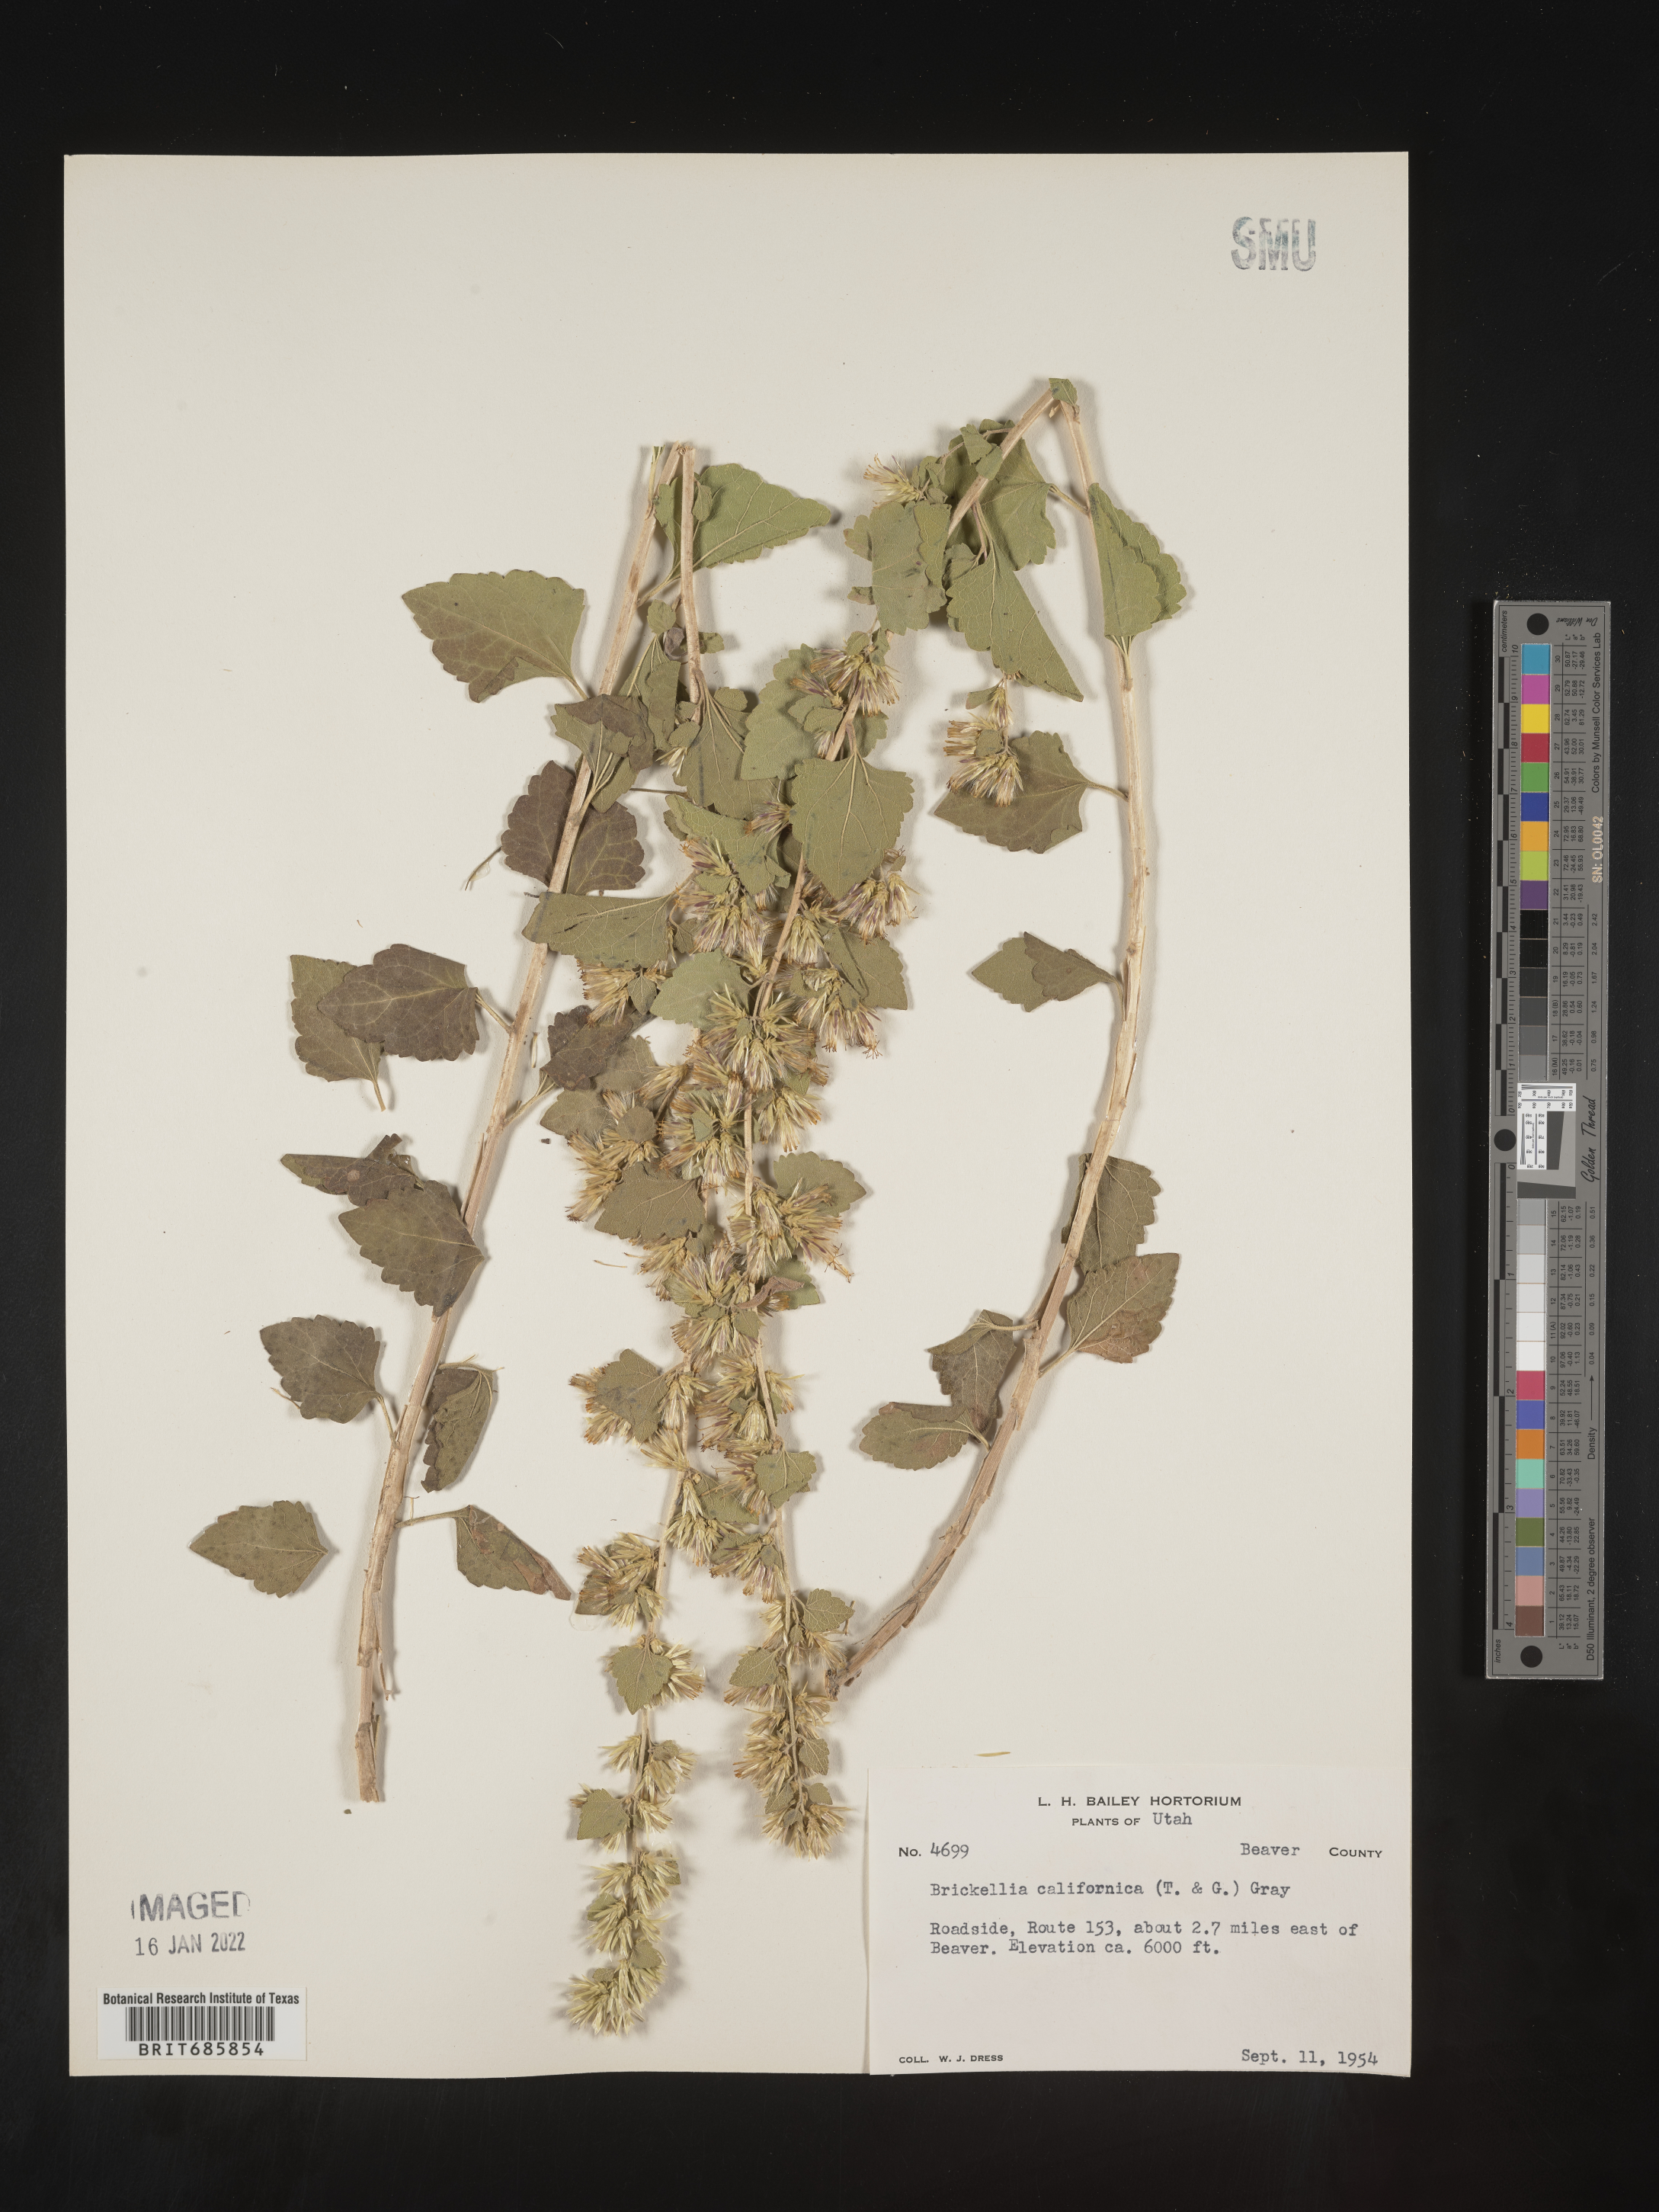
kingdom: Plantae
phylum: Tracheophyta
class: Magnoliopsida
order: Asterales
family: Asteraceae
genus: Brickellia
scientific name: Brickellia californica
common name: California brickellbush
